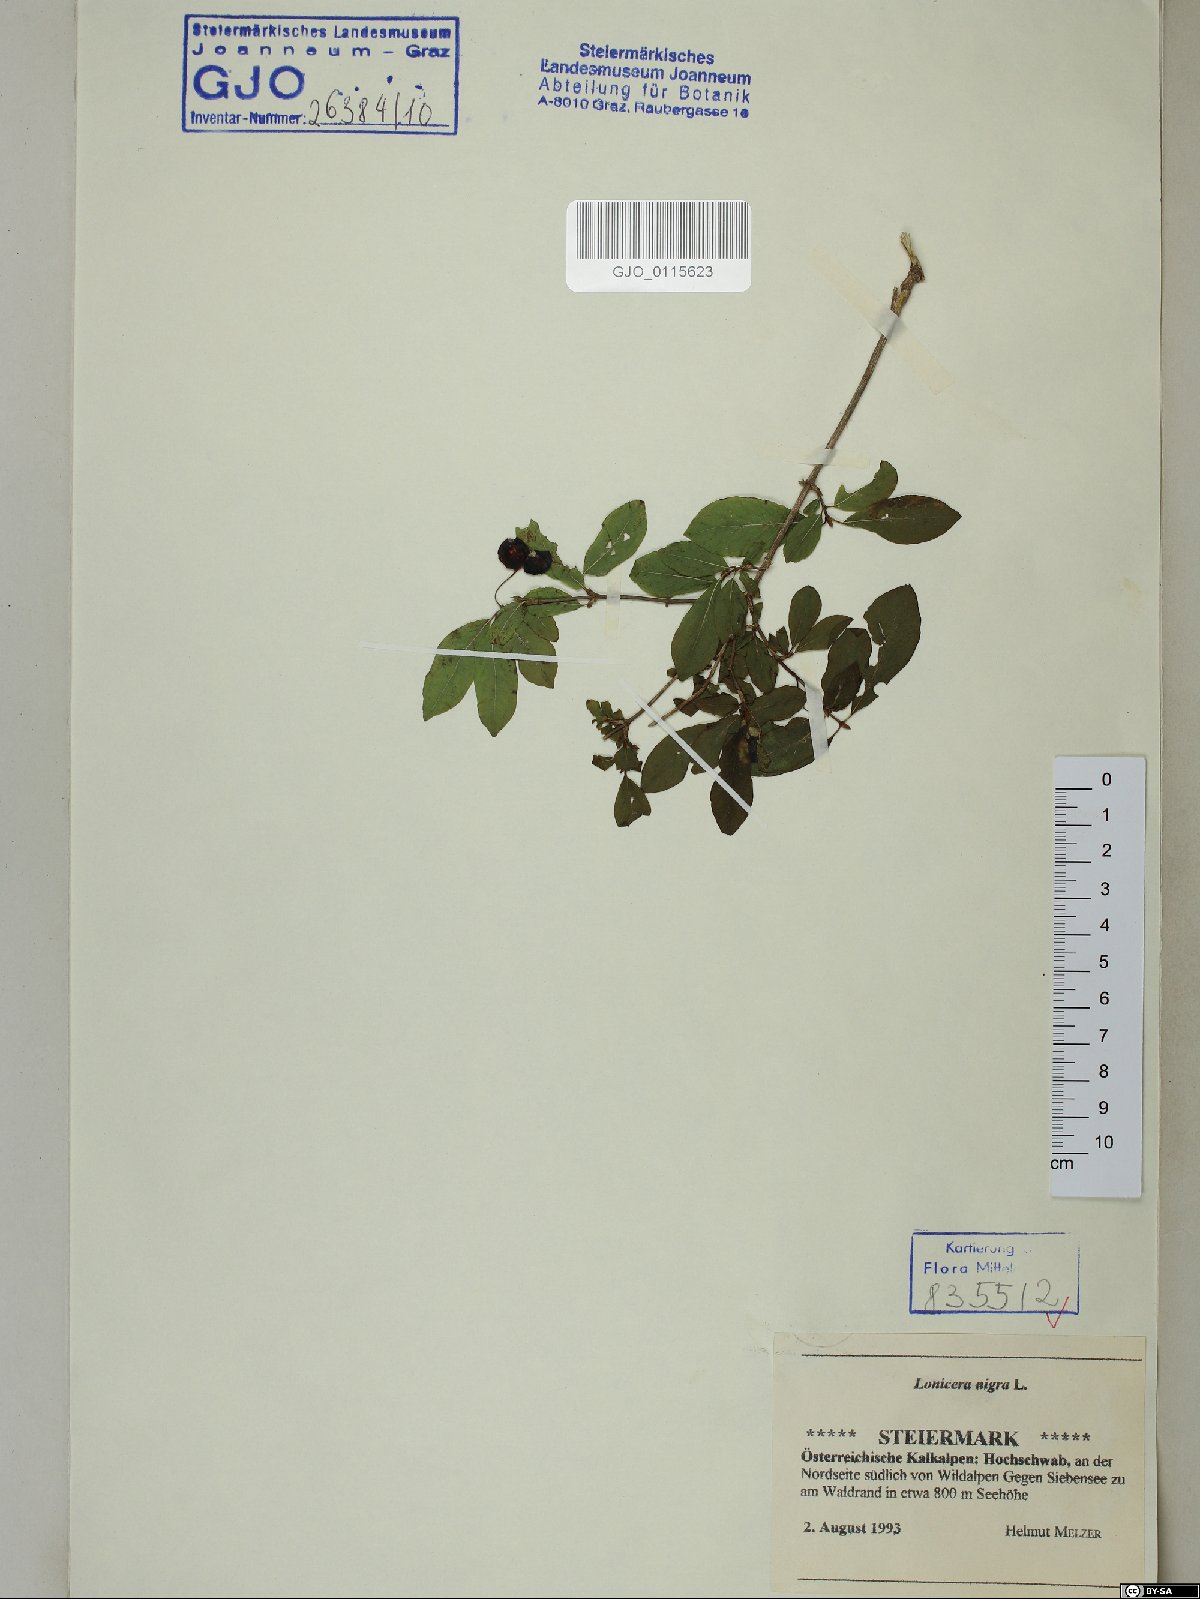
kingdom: Plantae
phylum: Tracheophyta
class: Magnoliopsida
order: Dipsacales
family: Caprifoliaceae
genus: Lonicera
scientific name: Lonicera nigra
